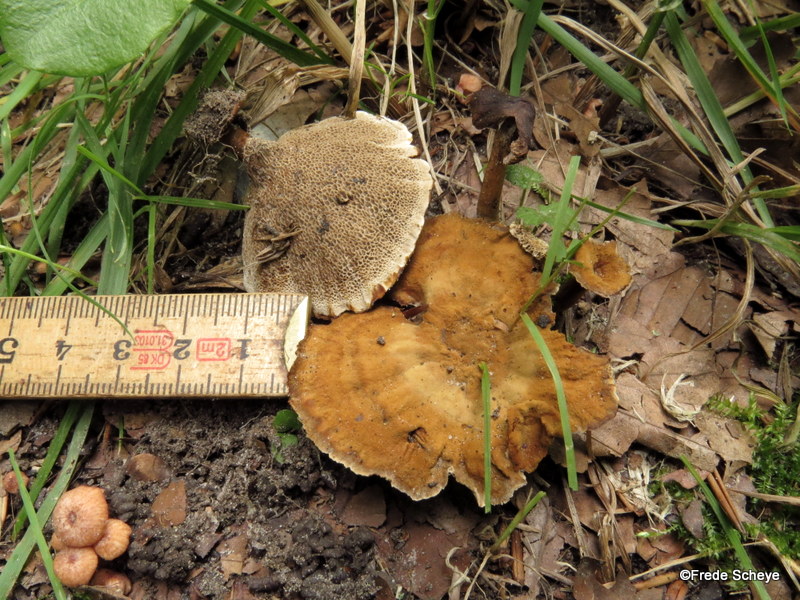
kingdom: Fungi
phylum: Basidiomycota
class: Agaricomycetes
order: Hymenochaetales
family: Hymenochaetaceae
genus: Coltricia
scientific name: Coltricia perennis
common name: almindelig sandporesvamp
